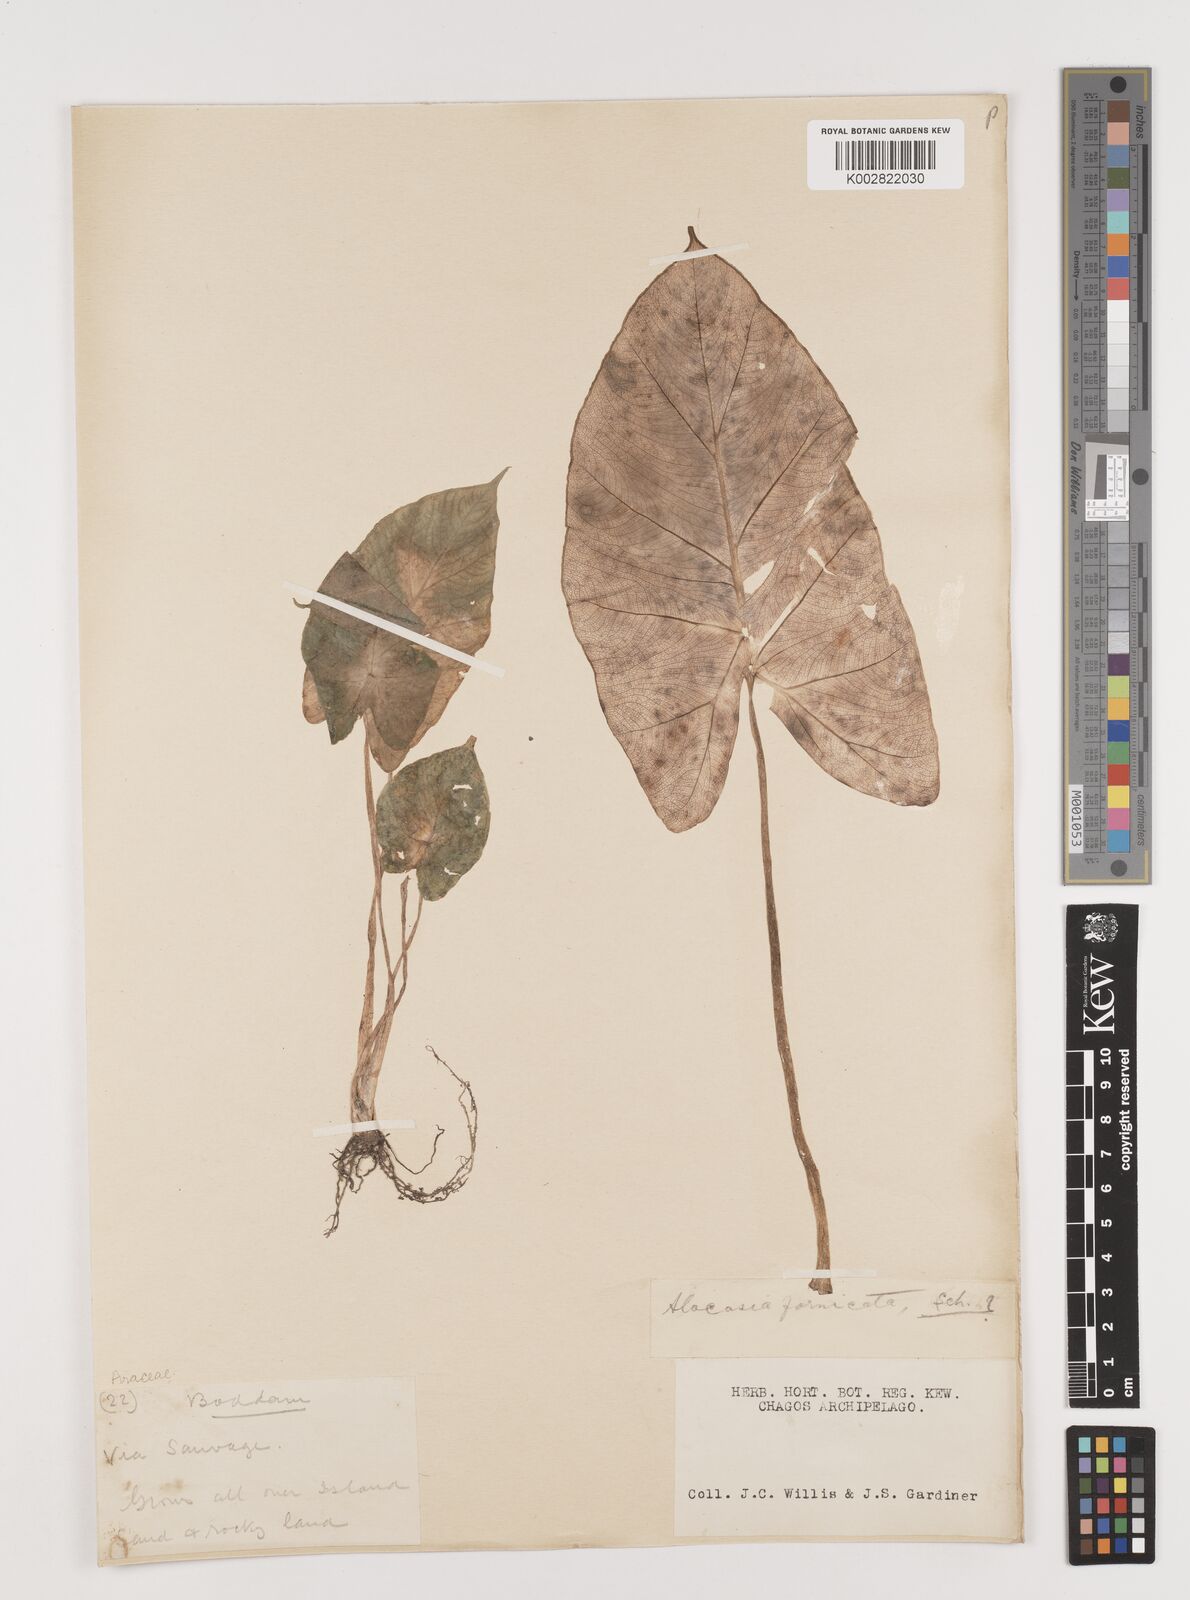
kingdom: Plantae
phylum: Tracheophyta
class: Liliopsida
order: Alismatales
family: Araceae
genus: Alocasia
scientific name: Alocasia
